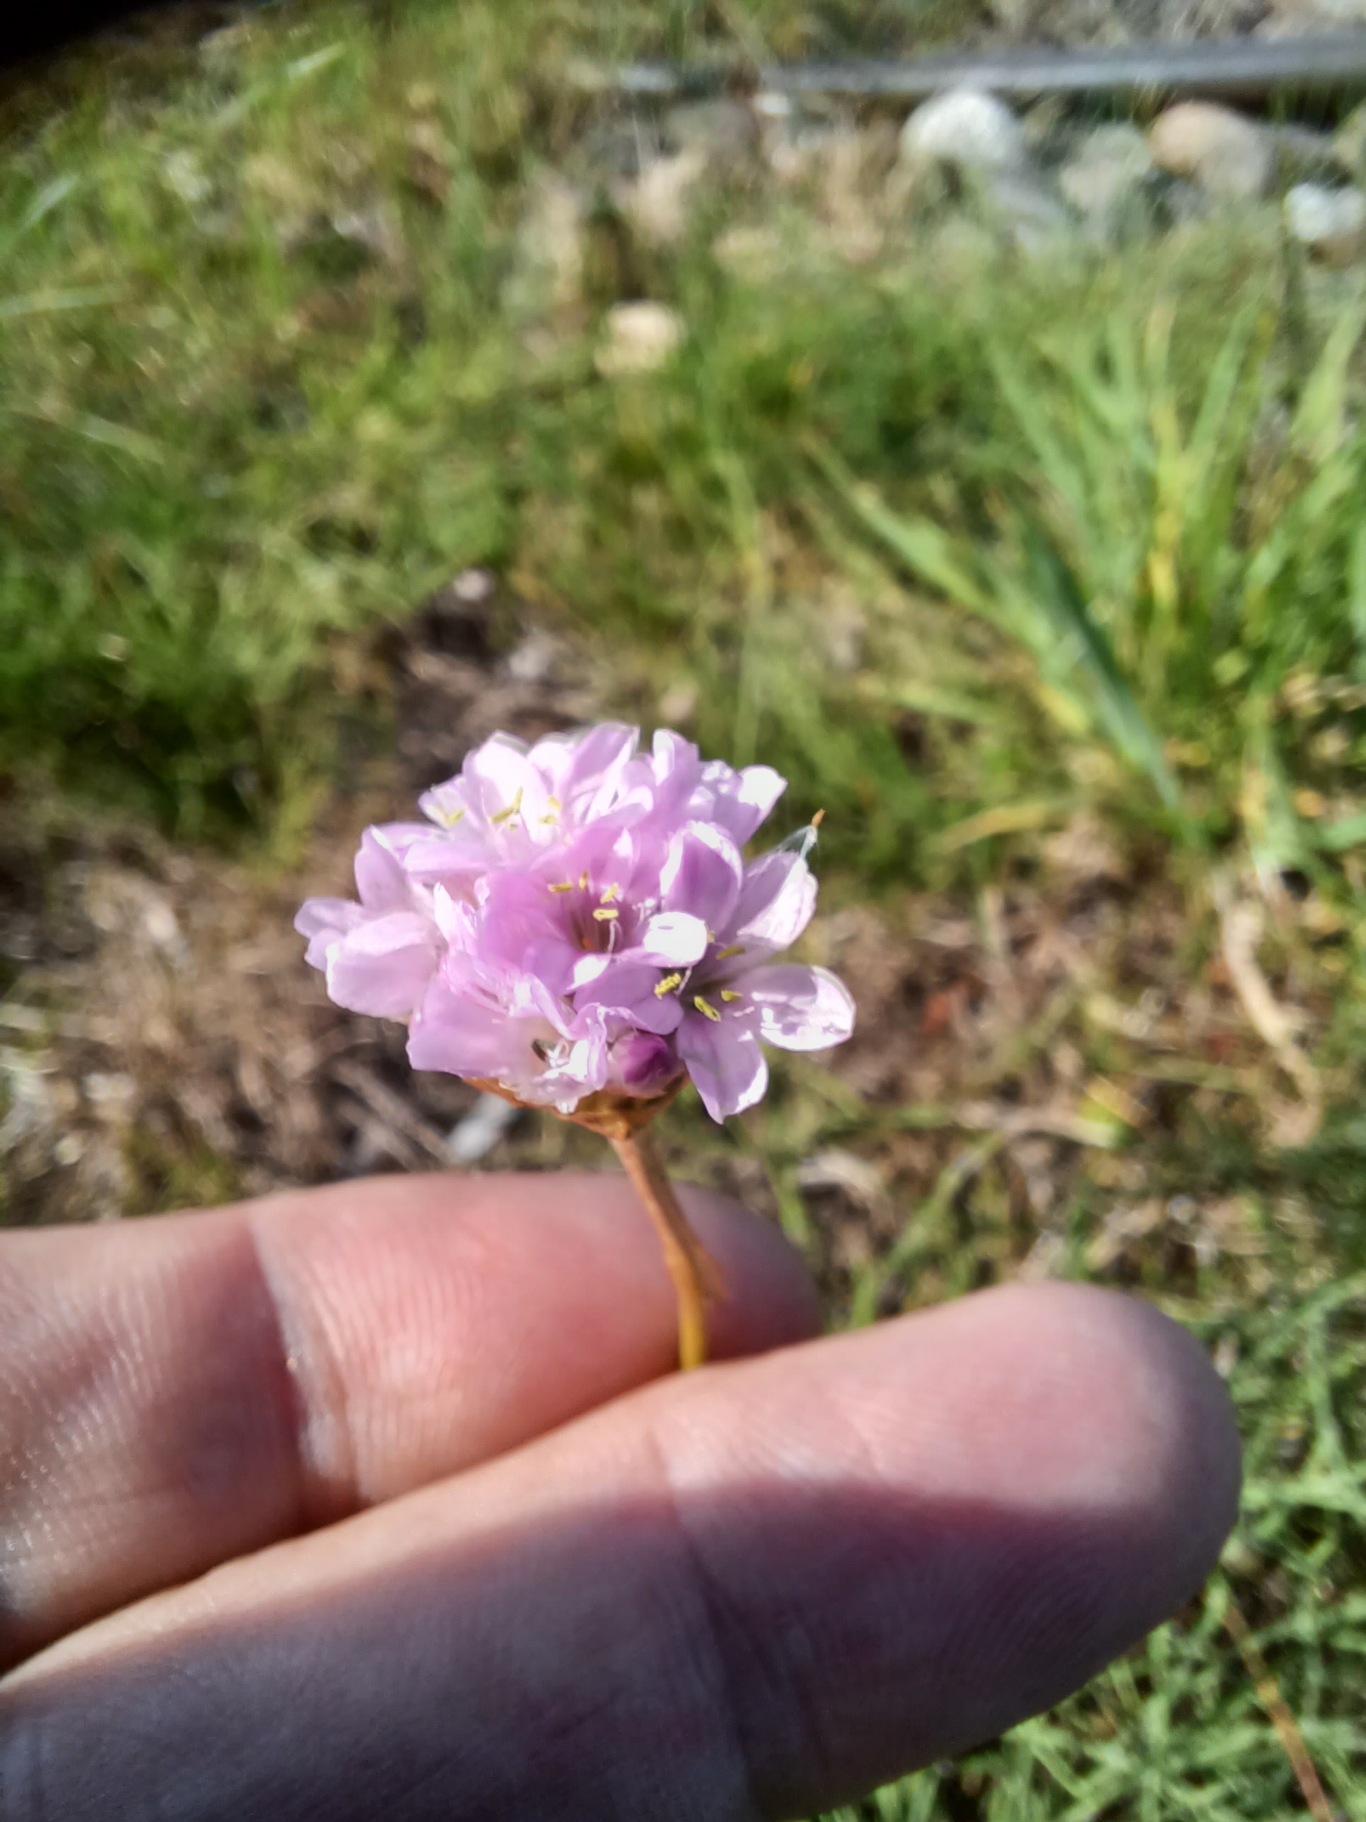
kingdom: Plantae
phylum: Tracheophyta
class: Magnoliopsida
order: Caryophyllales
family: Plumbaginaceae
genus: Armeria
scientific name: Armeria maritima
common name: Engelskgræs
